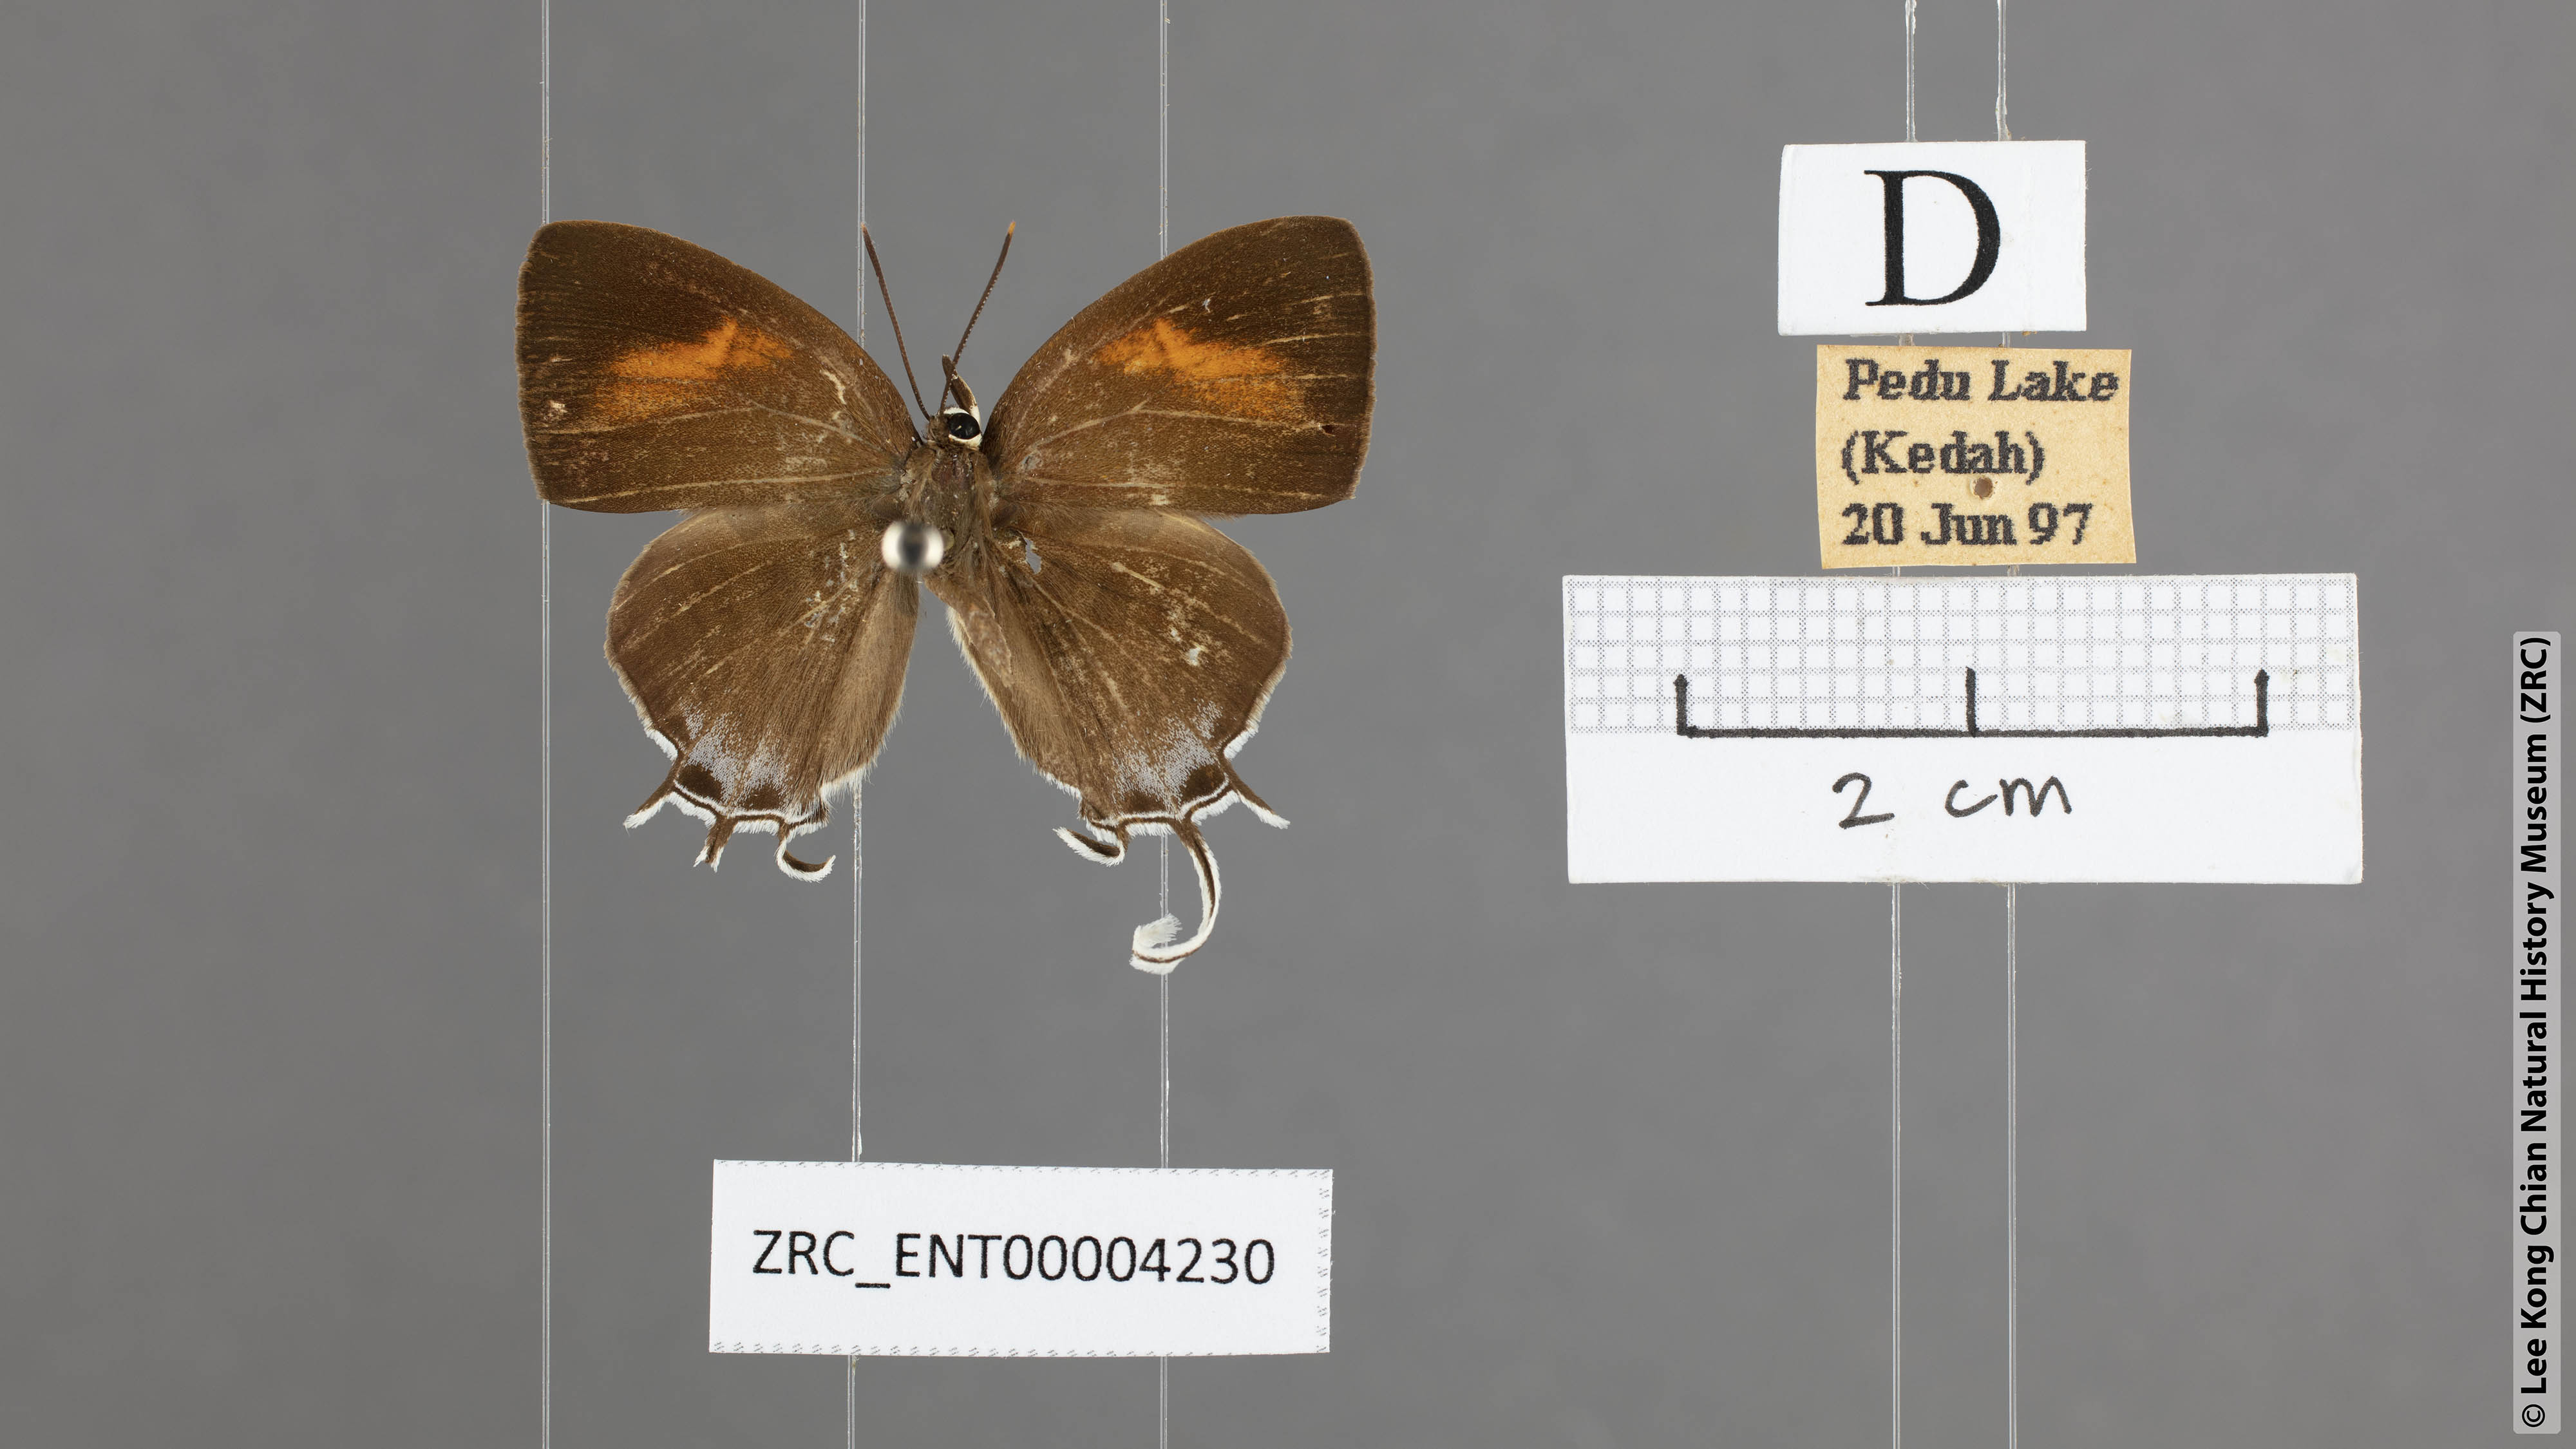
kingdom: Animalia
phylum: Arthropoda
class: Insecta
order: Lepidoptera
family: Lycaenidae
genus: Drupadia
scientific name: Drupadia theda
